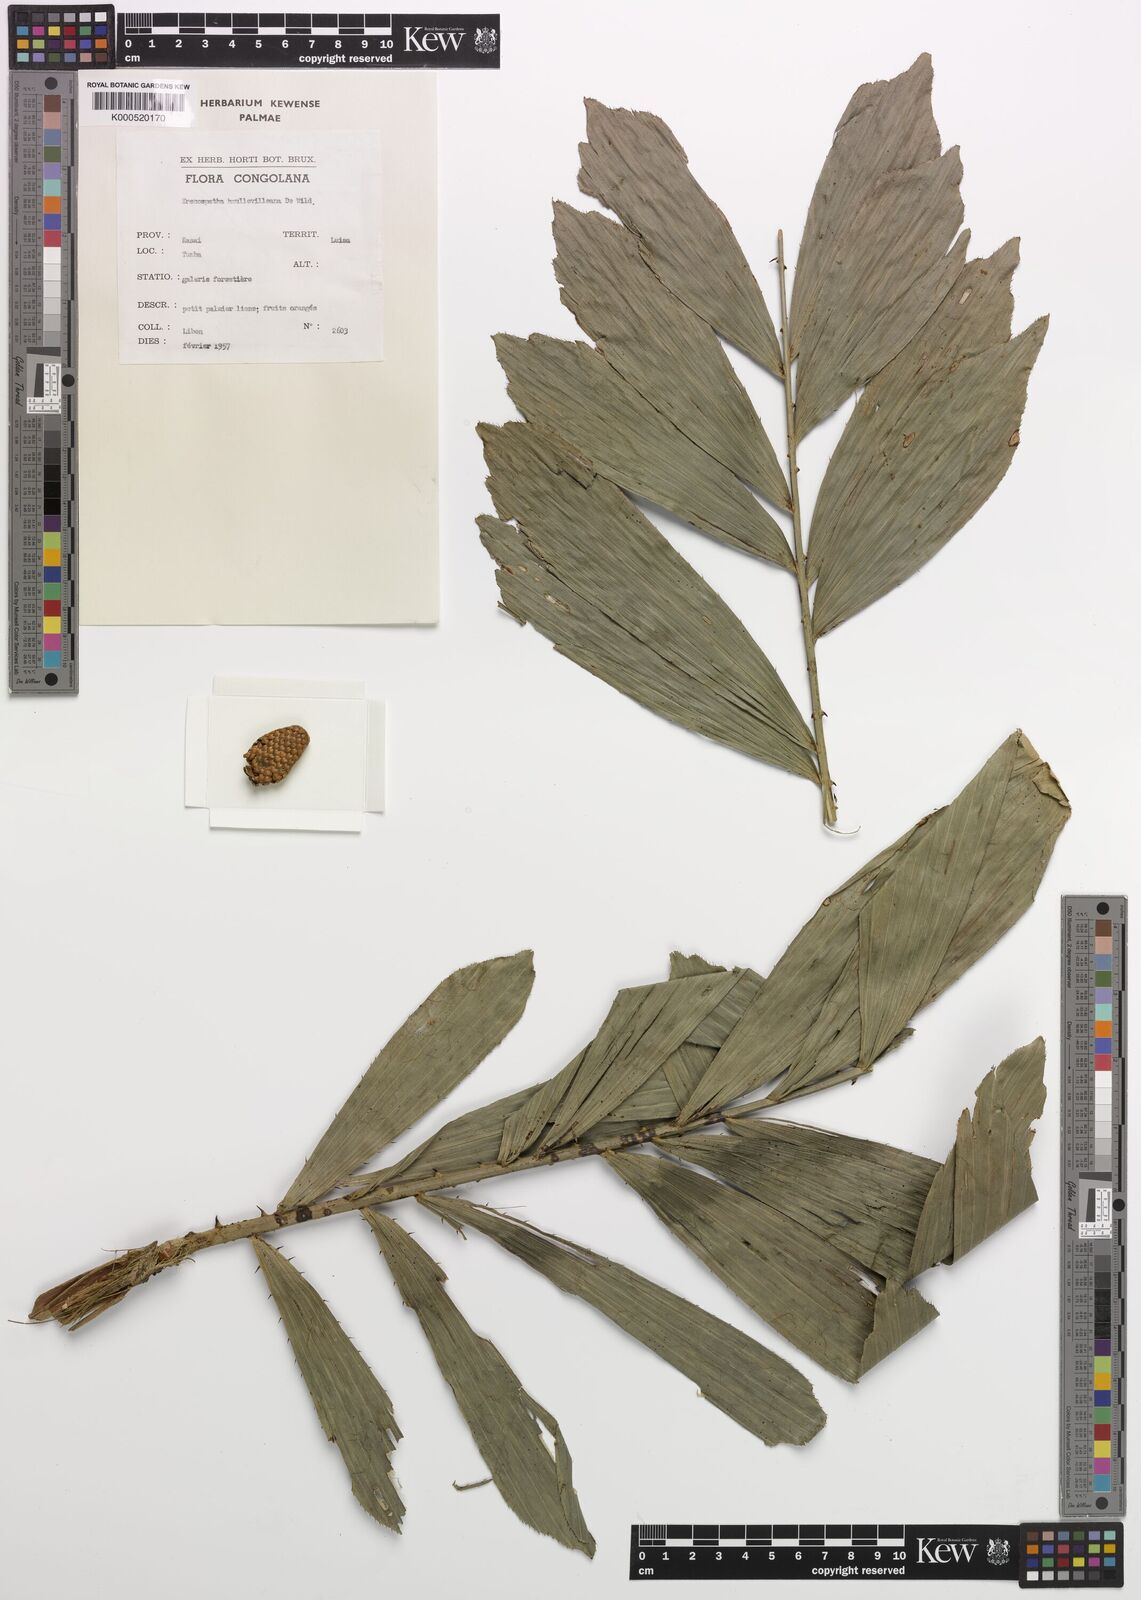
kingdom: Plantae
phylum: Tracheophyta
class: Liliopsida
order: Arecales
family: Arecaceae
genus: Eremospatha
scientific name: Eremospatha haullevilleana
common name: Rattan
